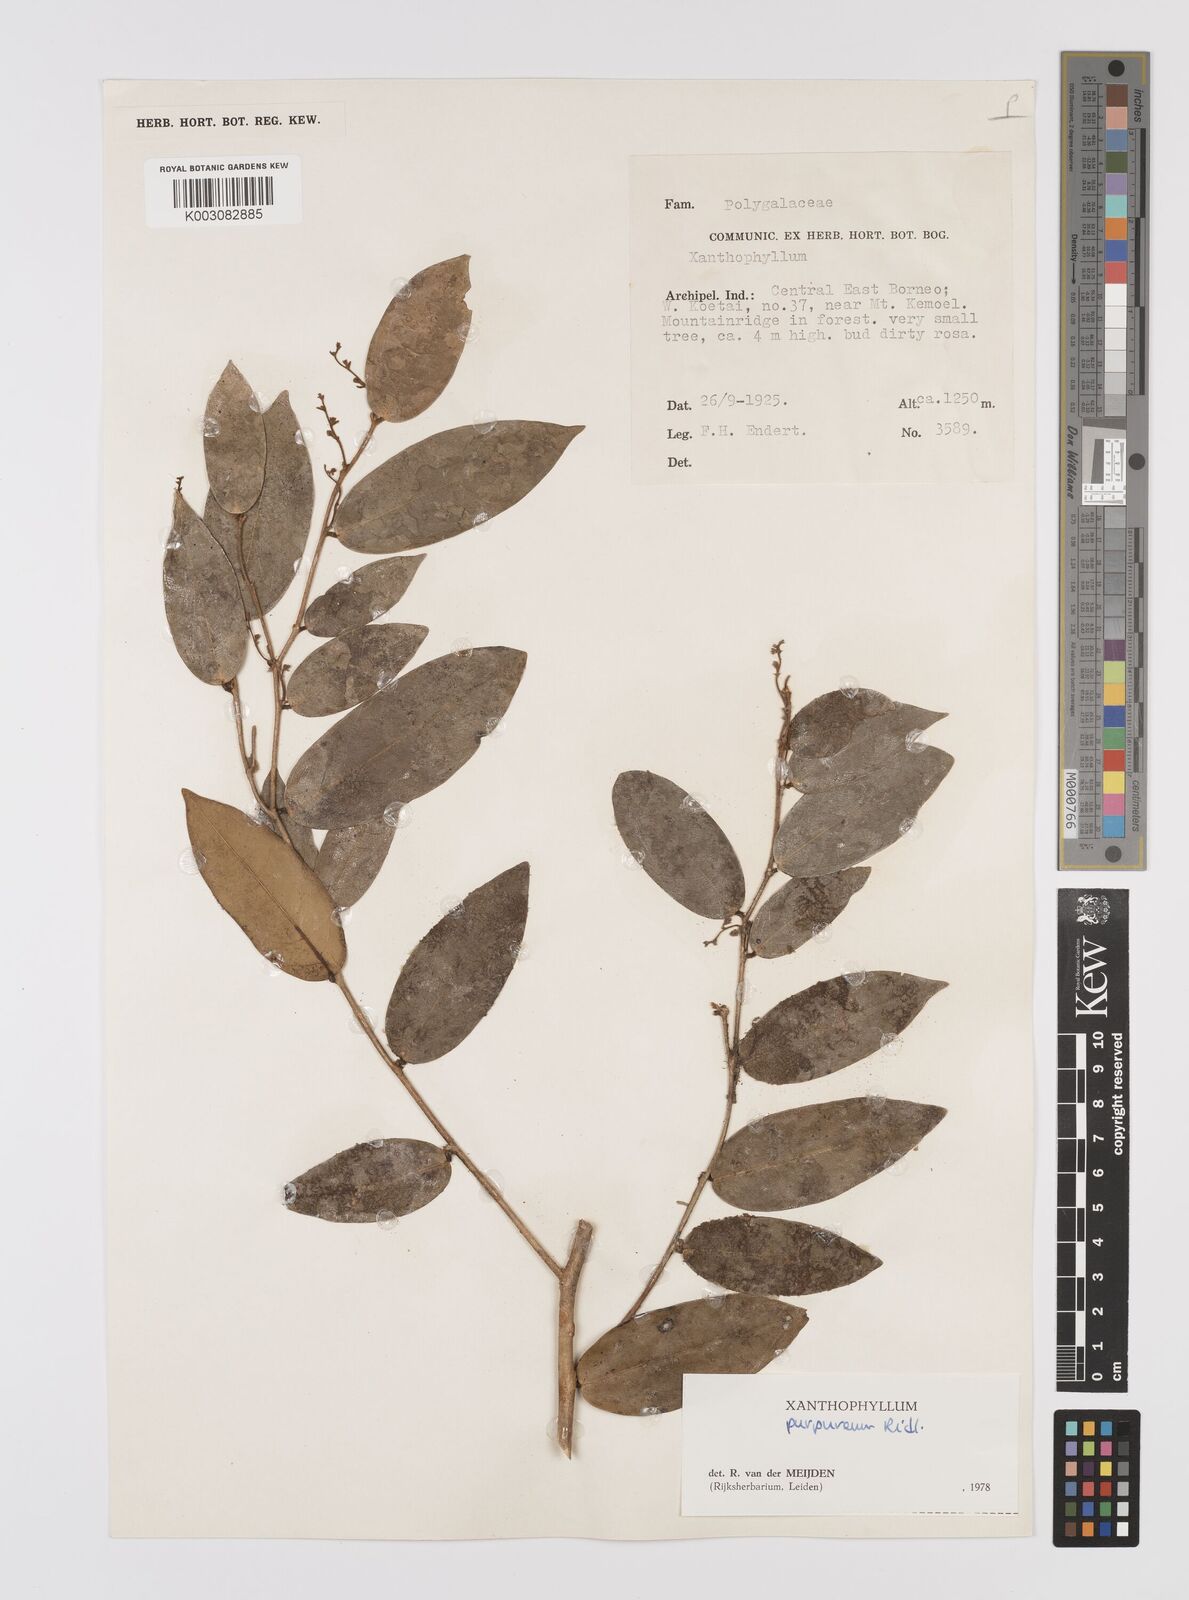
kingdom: Plantae
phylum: Tracheophyta
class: Magnoliopsida
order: Fabales
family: Polygalaceae
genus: Xanthophyllum
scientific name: Xanthophyllum purpureum
